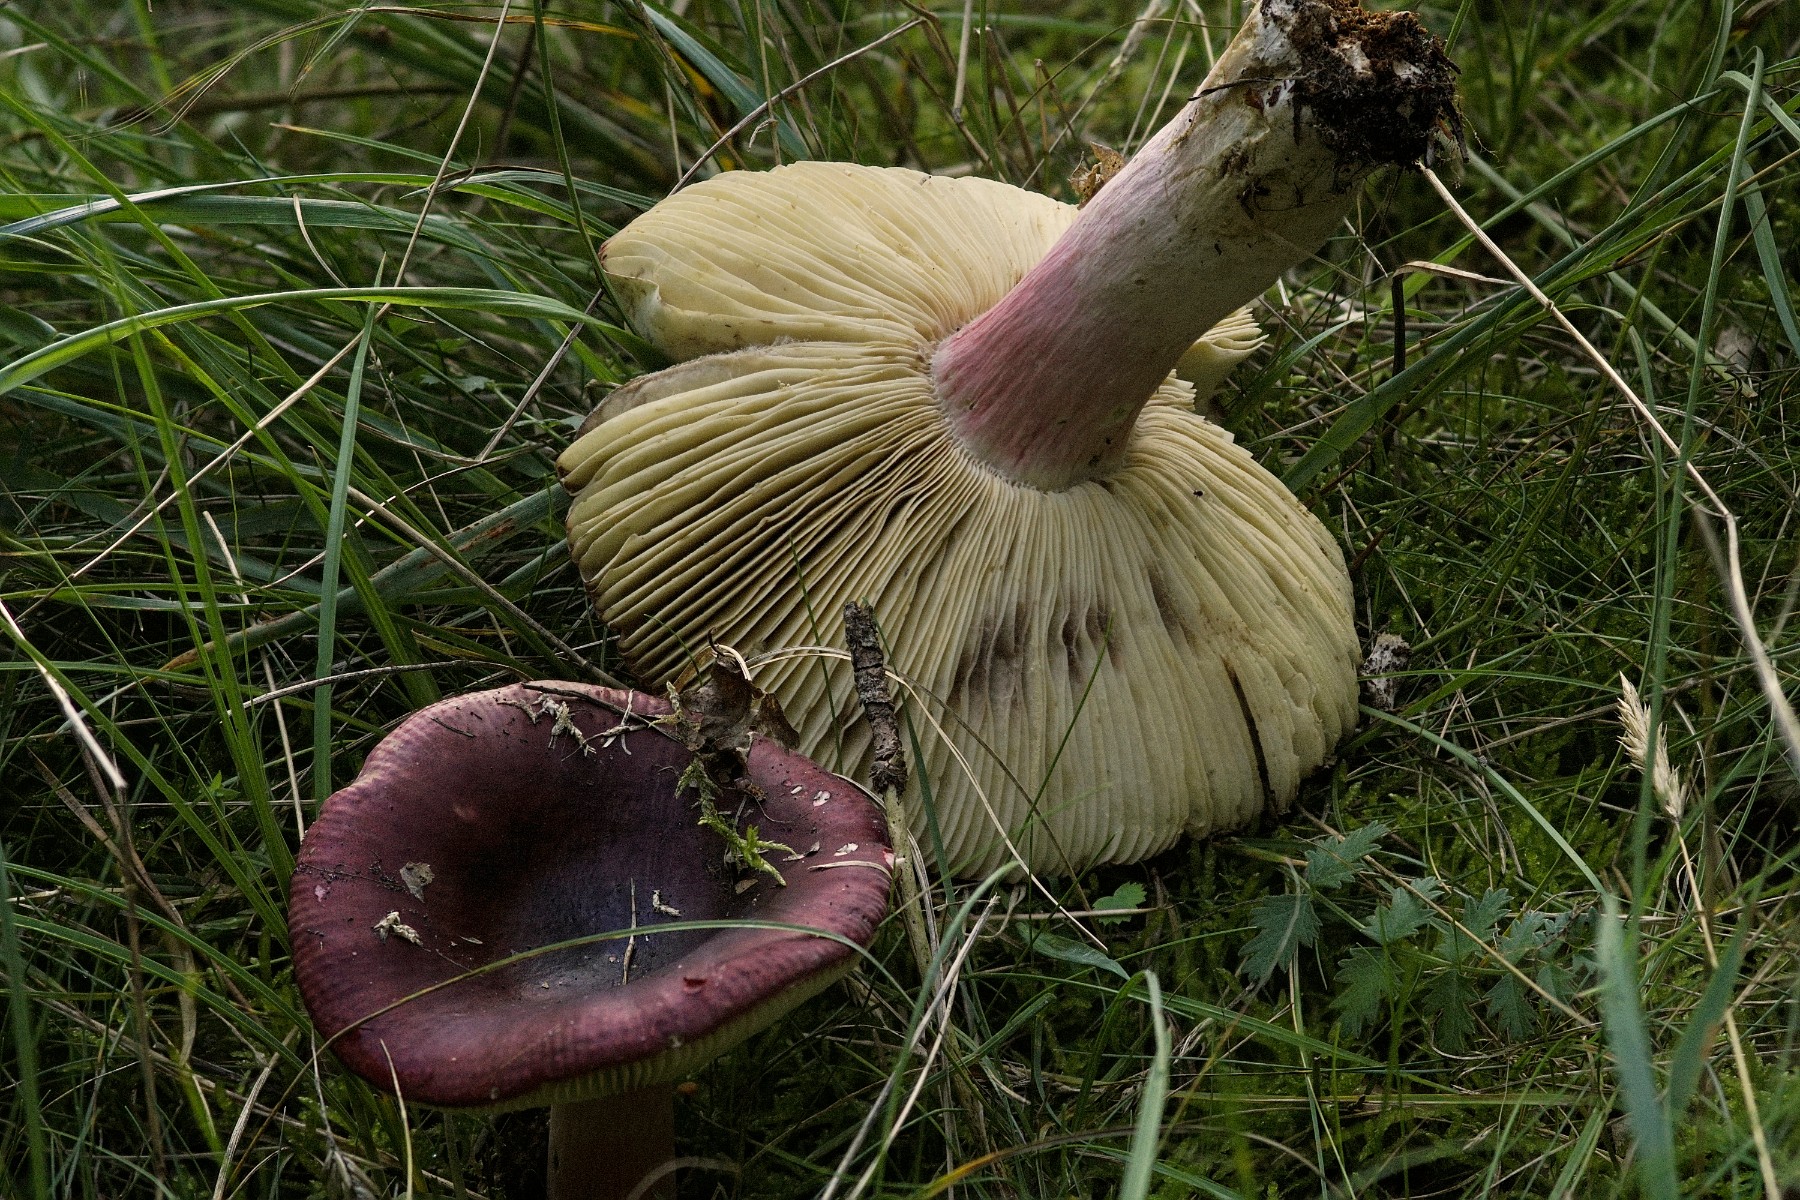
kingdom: Fungi
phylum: Basidiomycota
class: Agaricomycetes
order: Russulales
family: Russulaceae
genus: Russula
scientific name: Russula xerampelina
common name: hummer-skørhat
